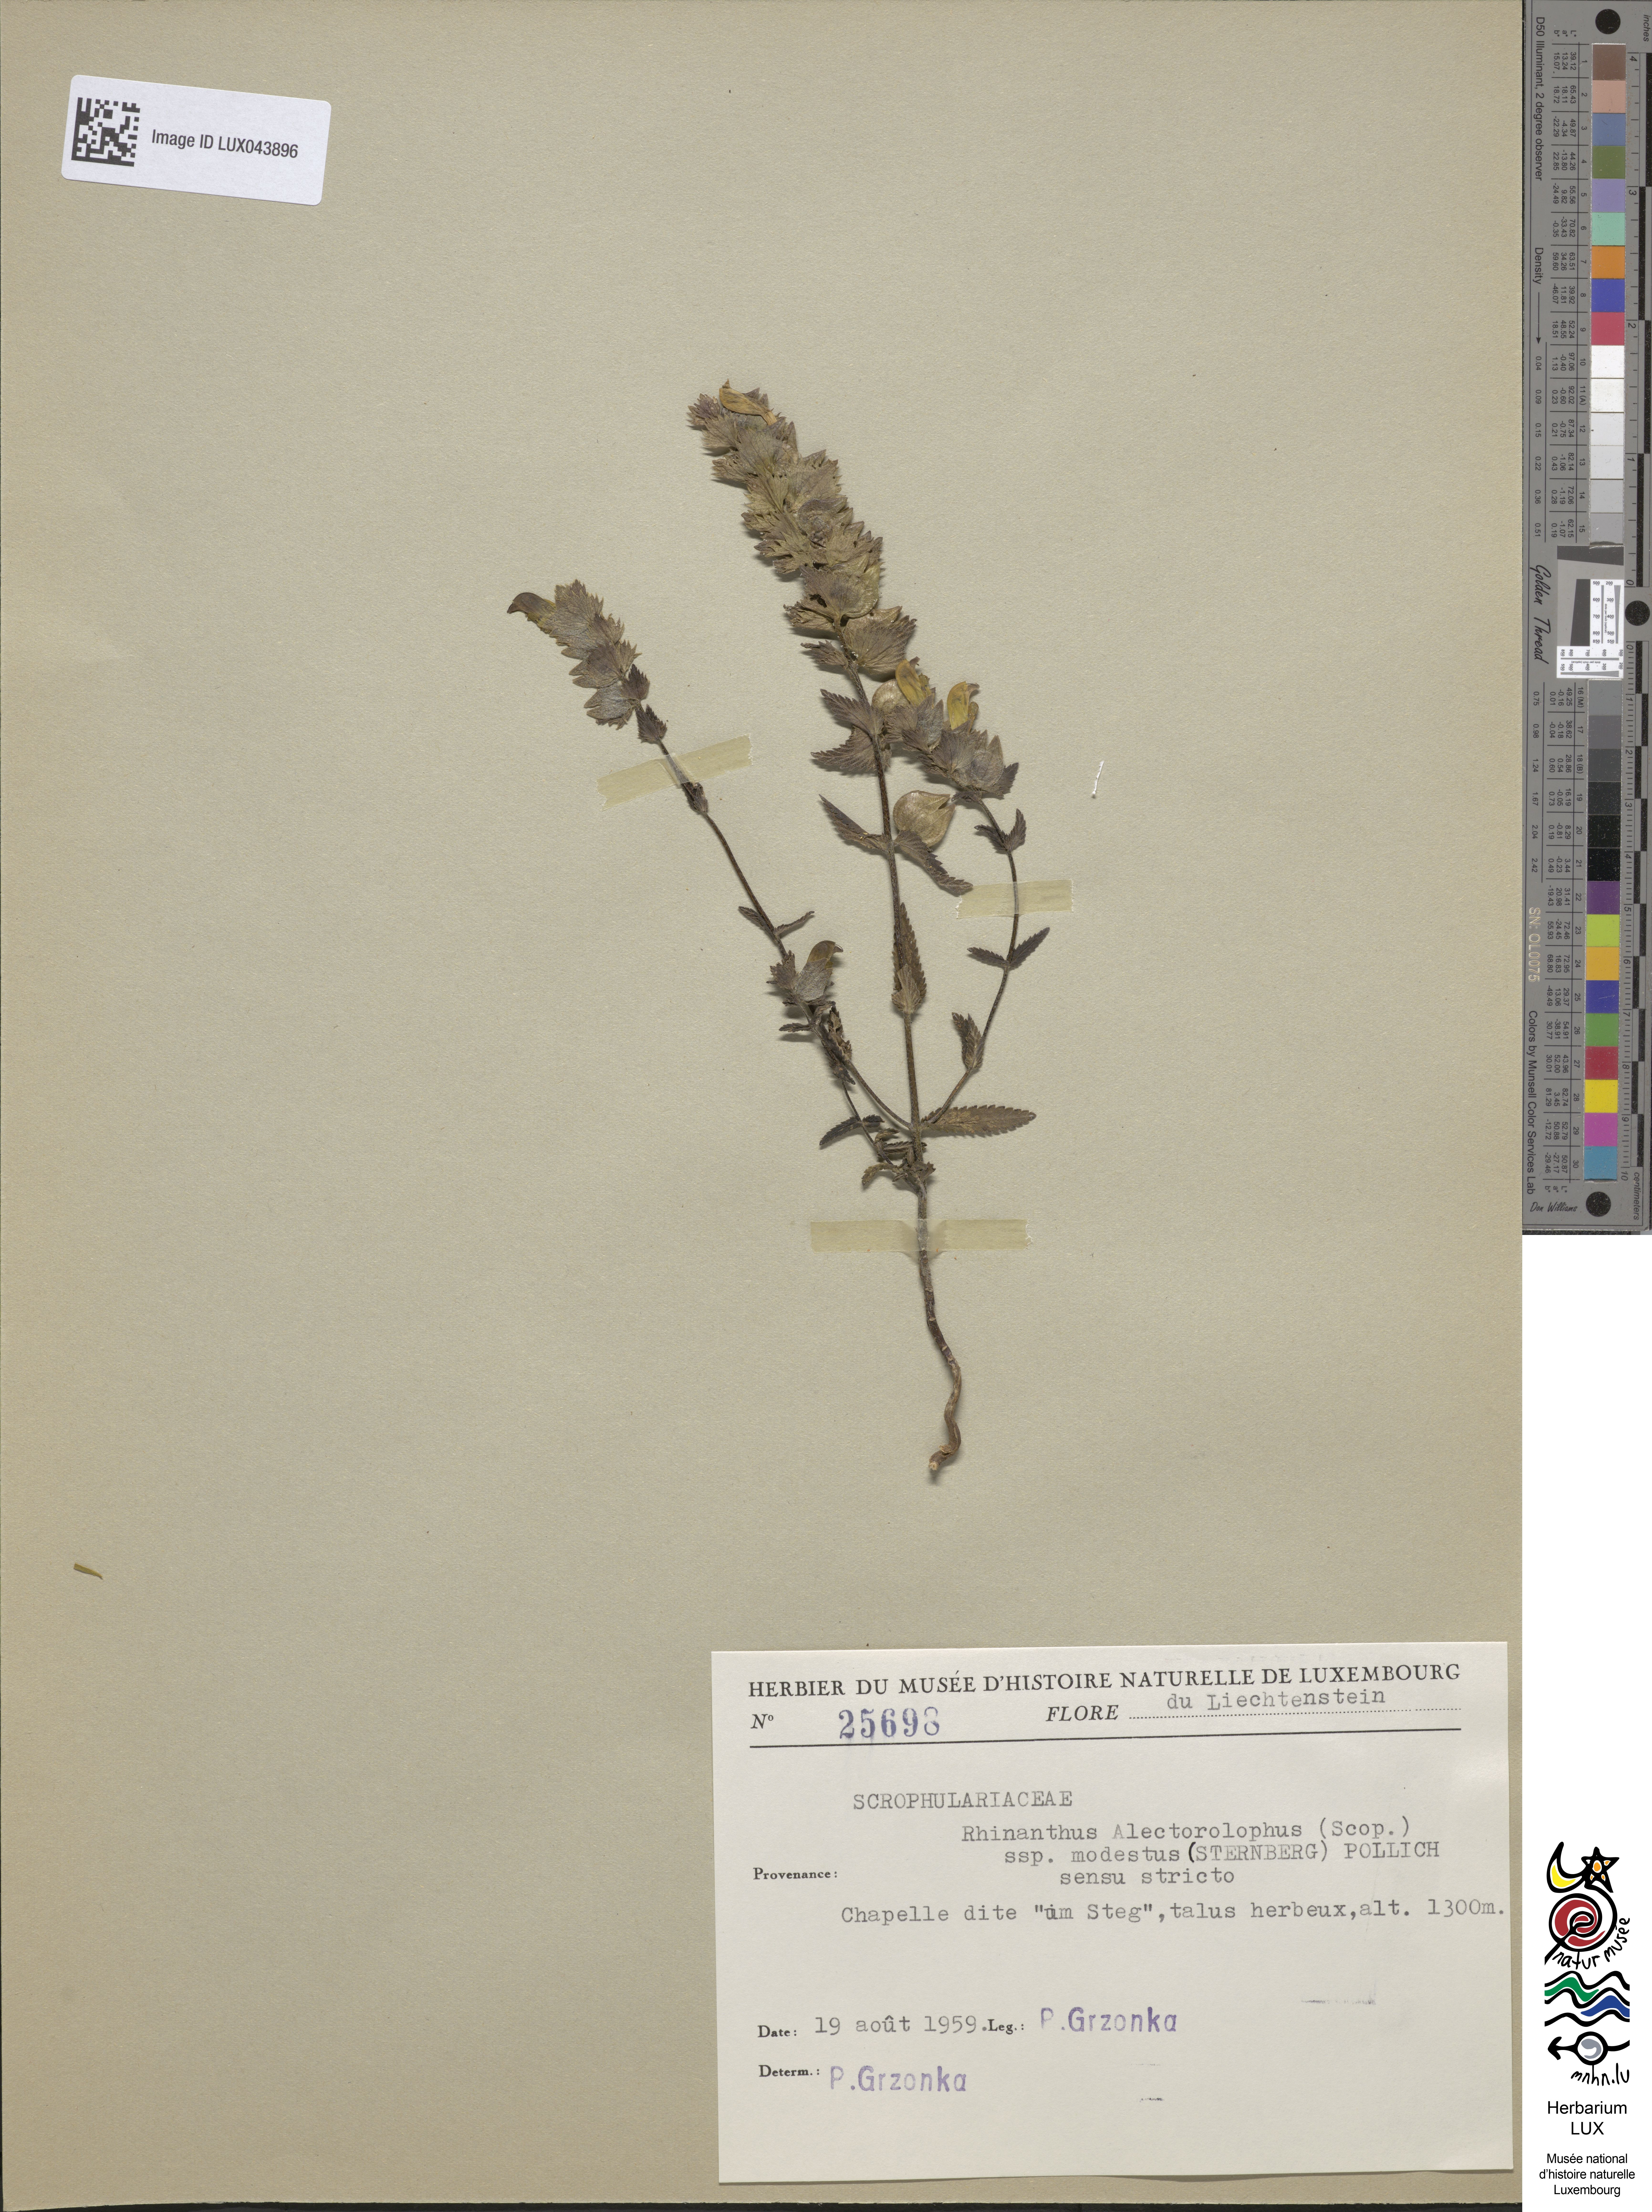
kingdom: Plantae
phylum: Tracheophyta
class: Magnoliopsida
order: Lamiales
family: Orobanchaceae
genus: Rhinanthus
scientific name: Rhinanthus alectorolophus
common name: Greater yellow-rattle
